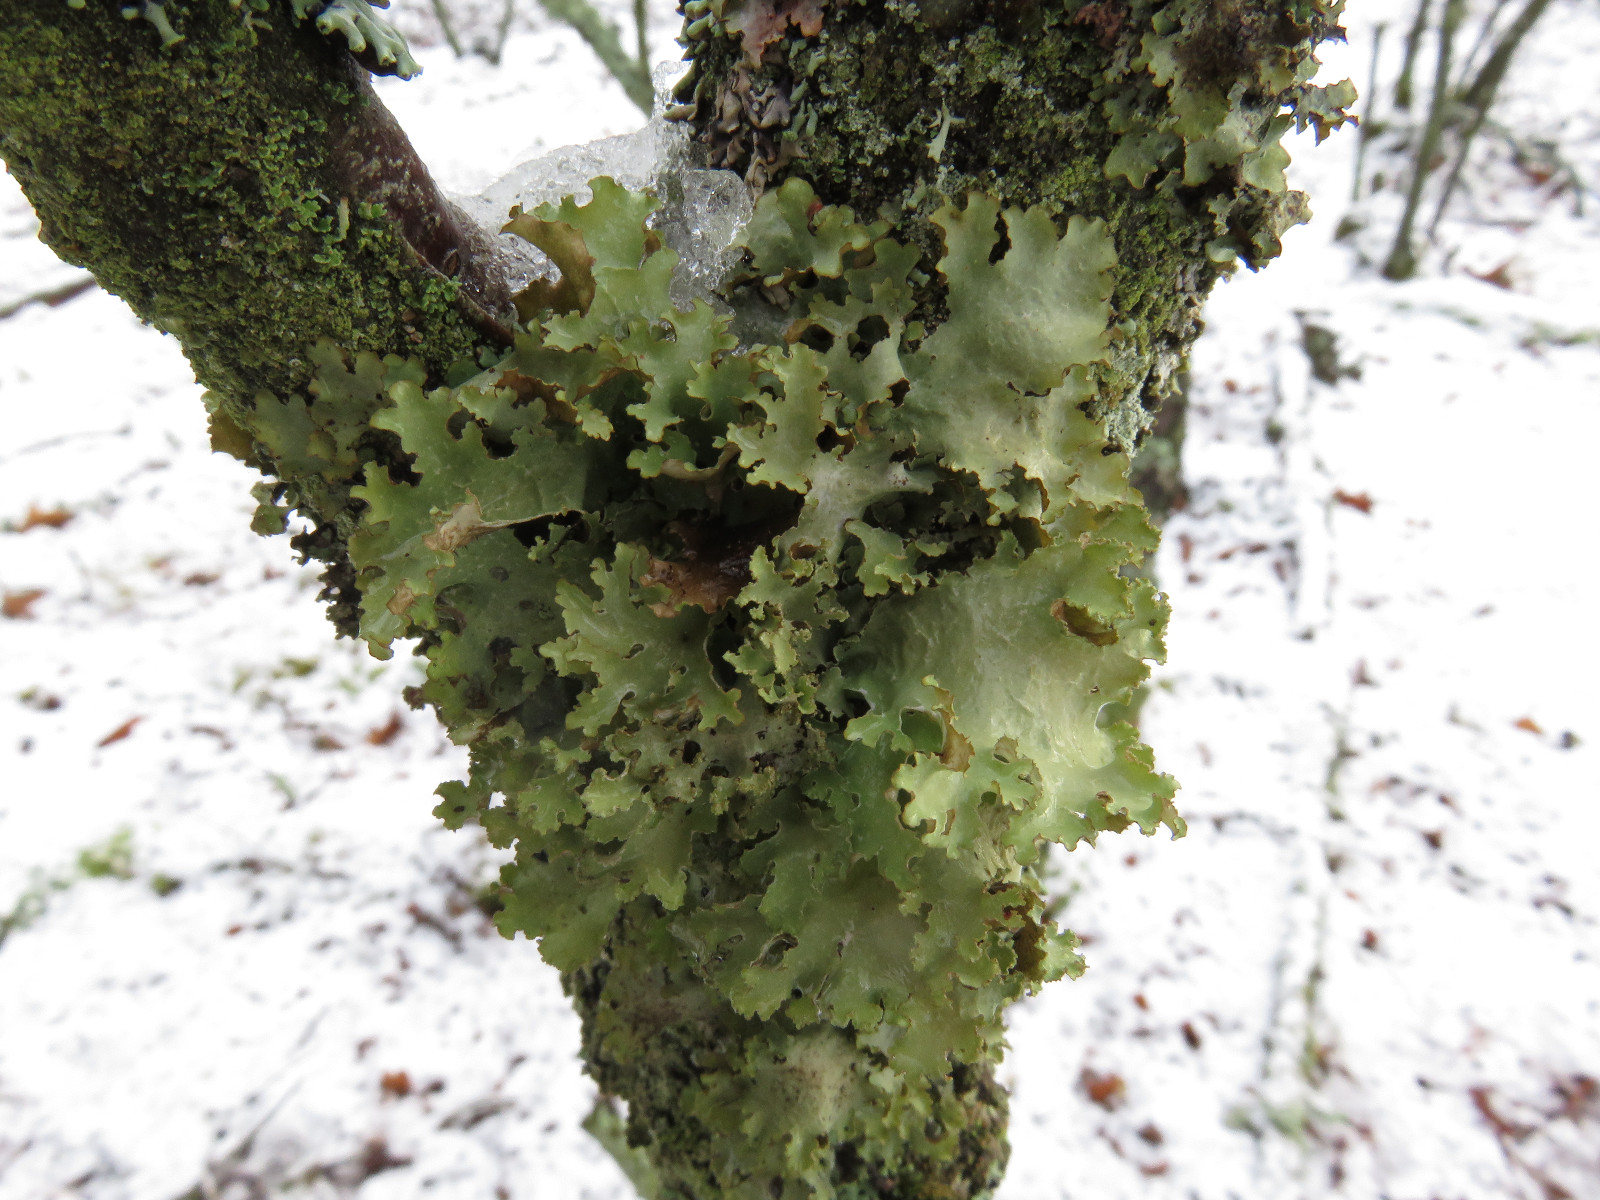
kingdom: Fungi
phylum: Ascomycota
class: Lecanoromycetes
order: Lecanorales
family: Parmeliaceae
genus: Platismatia
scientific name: Platismatia glauca
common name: blågrå papirlav
